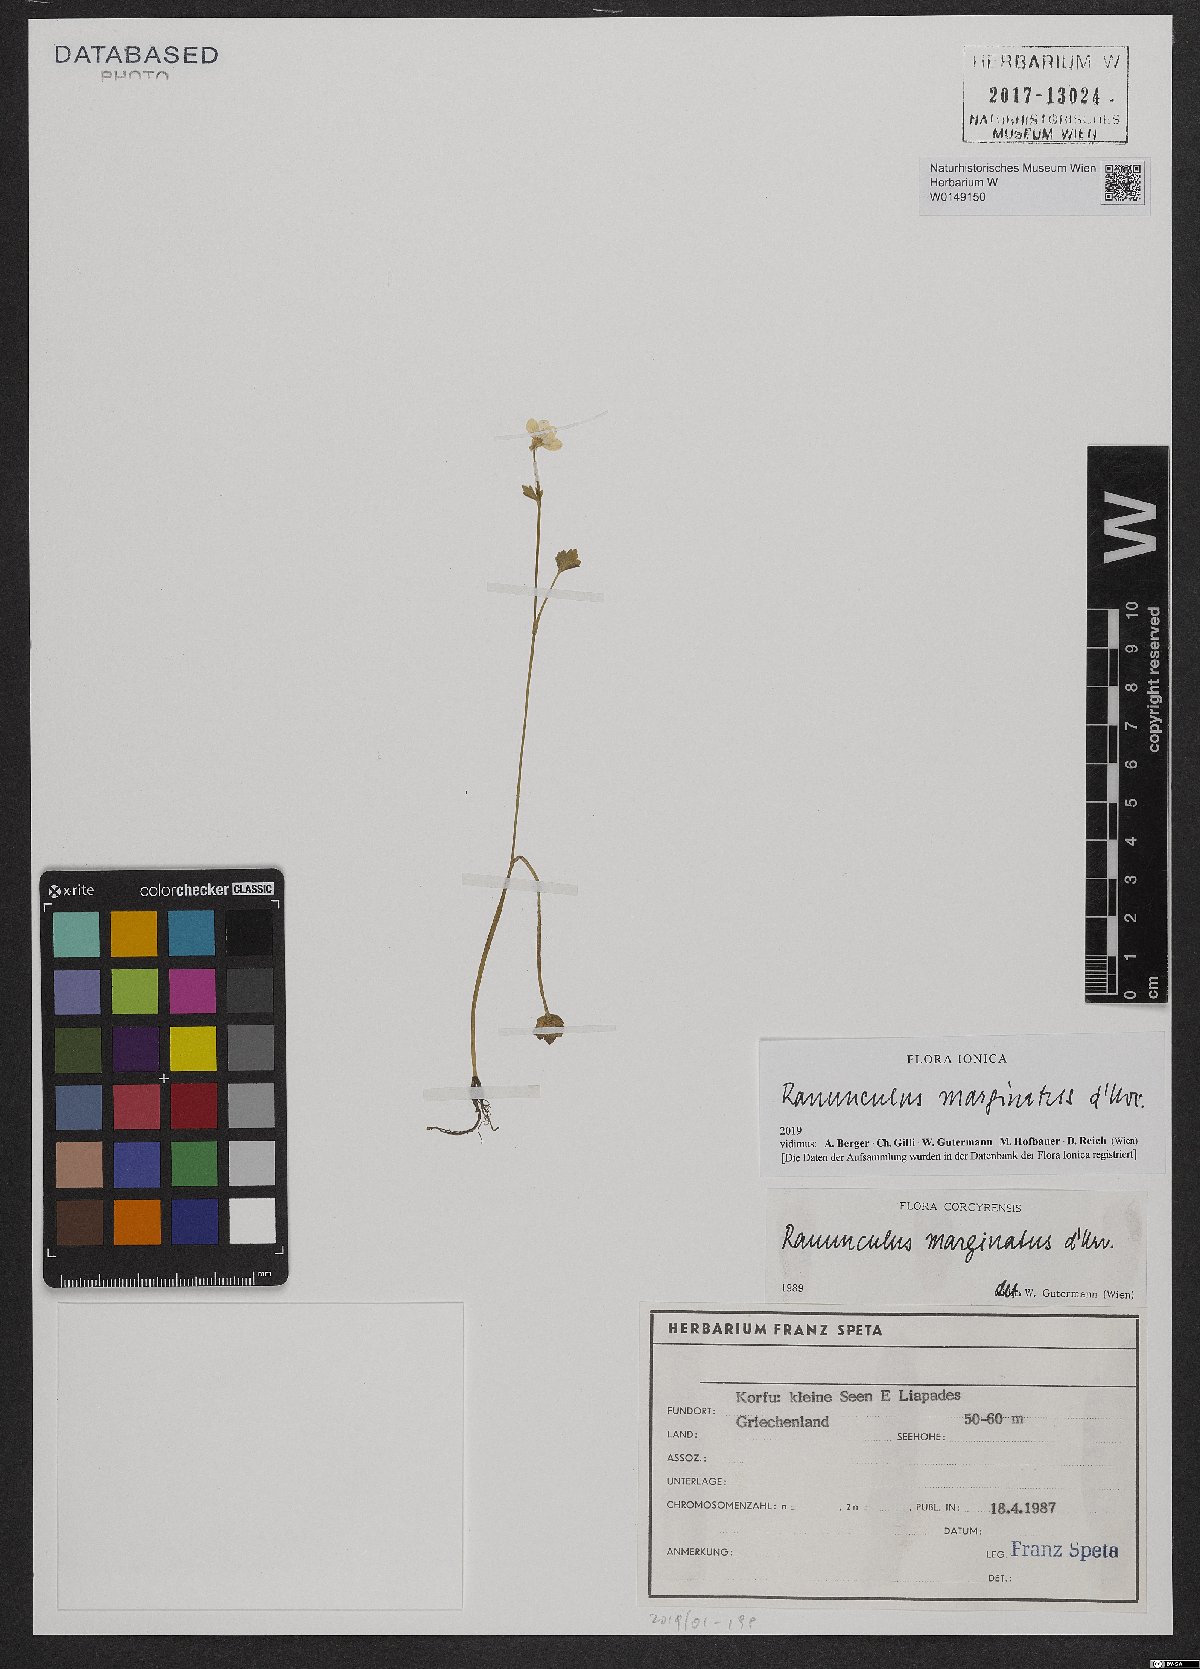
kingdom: Plantae
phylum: Tracheophyta
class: Magnoliopsida
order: Ranunculales
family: Ranunculaceae
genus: Ranunculus
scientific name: Ranunculus marginatus
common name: St. martin's buttercup
